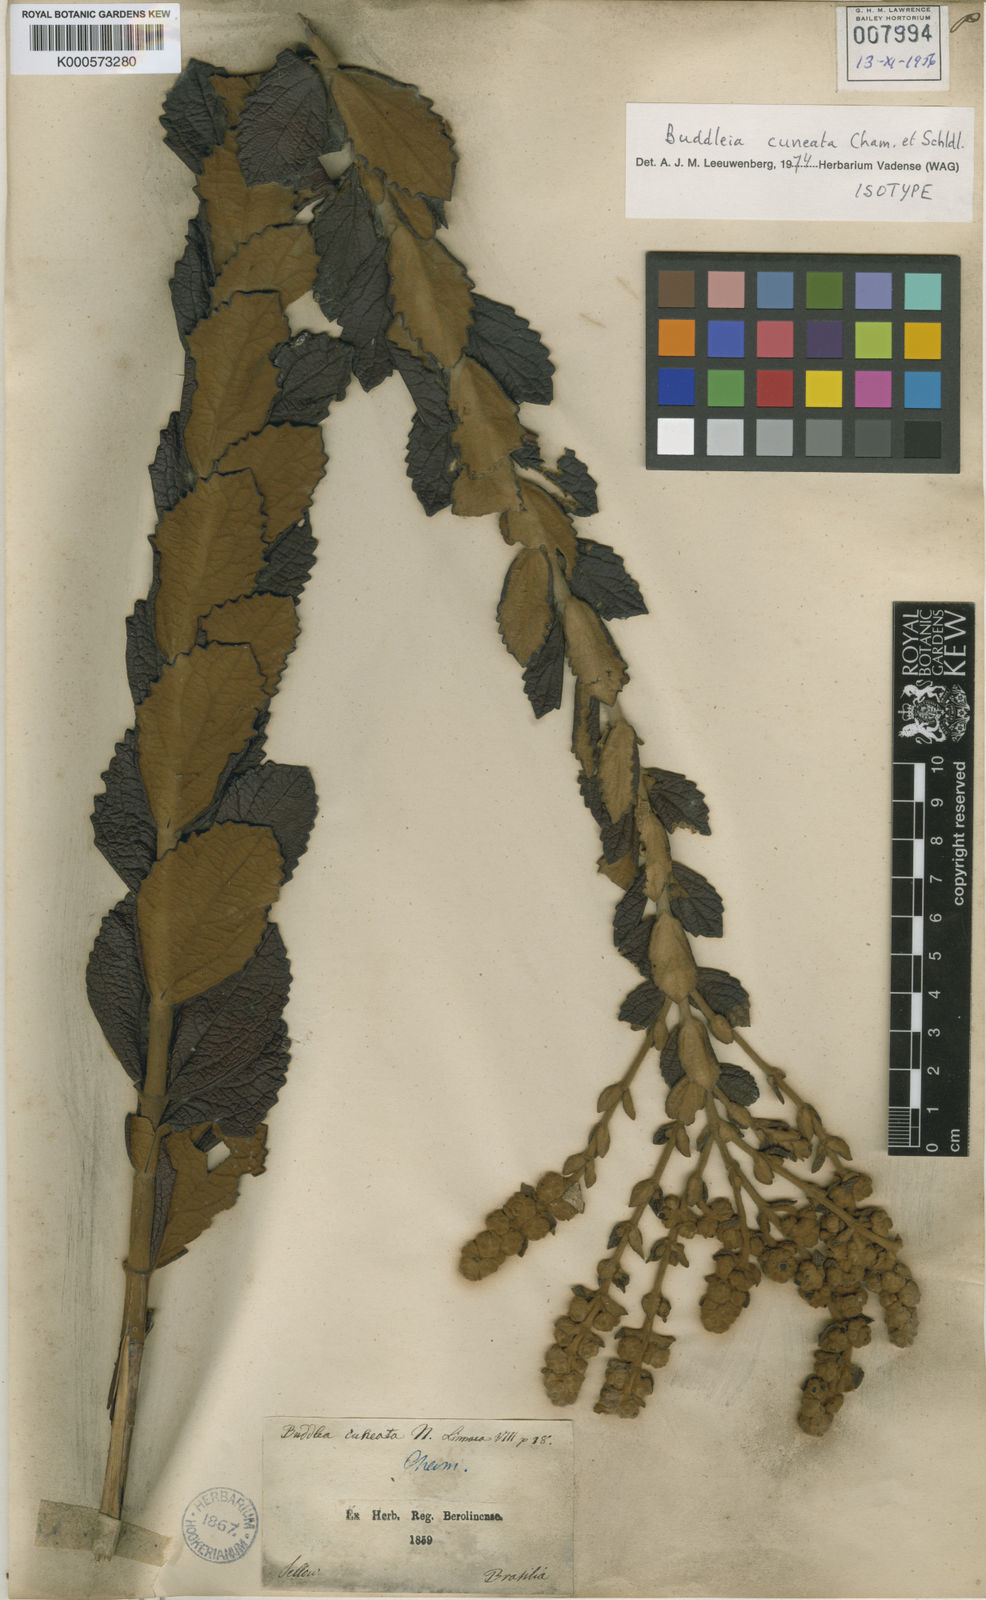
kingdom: Plantae
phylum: Tracheophyta
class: Magnoliopsida
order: Lamiales
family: Scrophulariaceae
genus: Buddleja
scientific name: Buddleja cuneata
